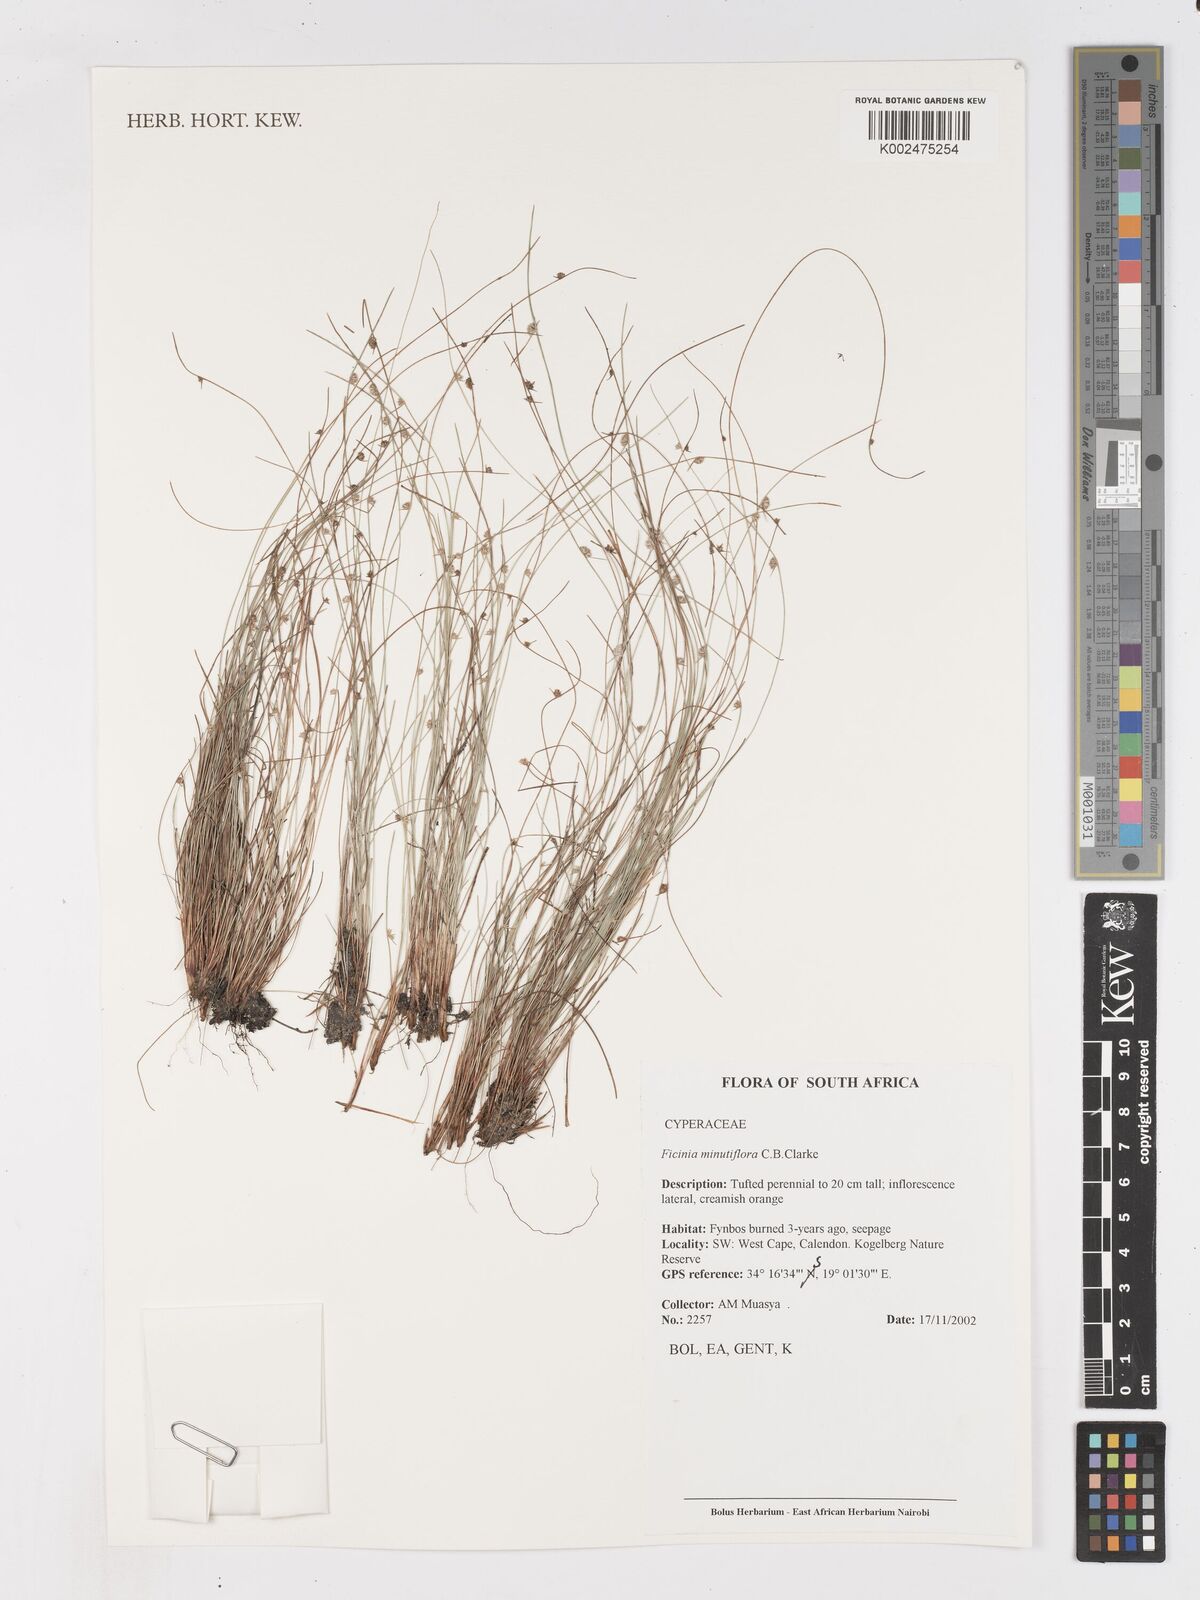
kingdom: Plantae
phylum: Tracheophyta
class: Liliopsida
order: Poales
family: Cyperaceae
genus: Ficinia
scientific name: Ficinia minutiflora
